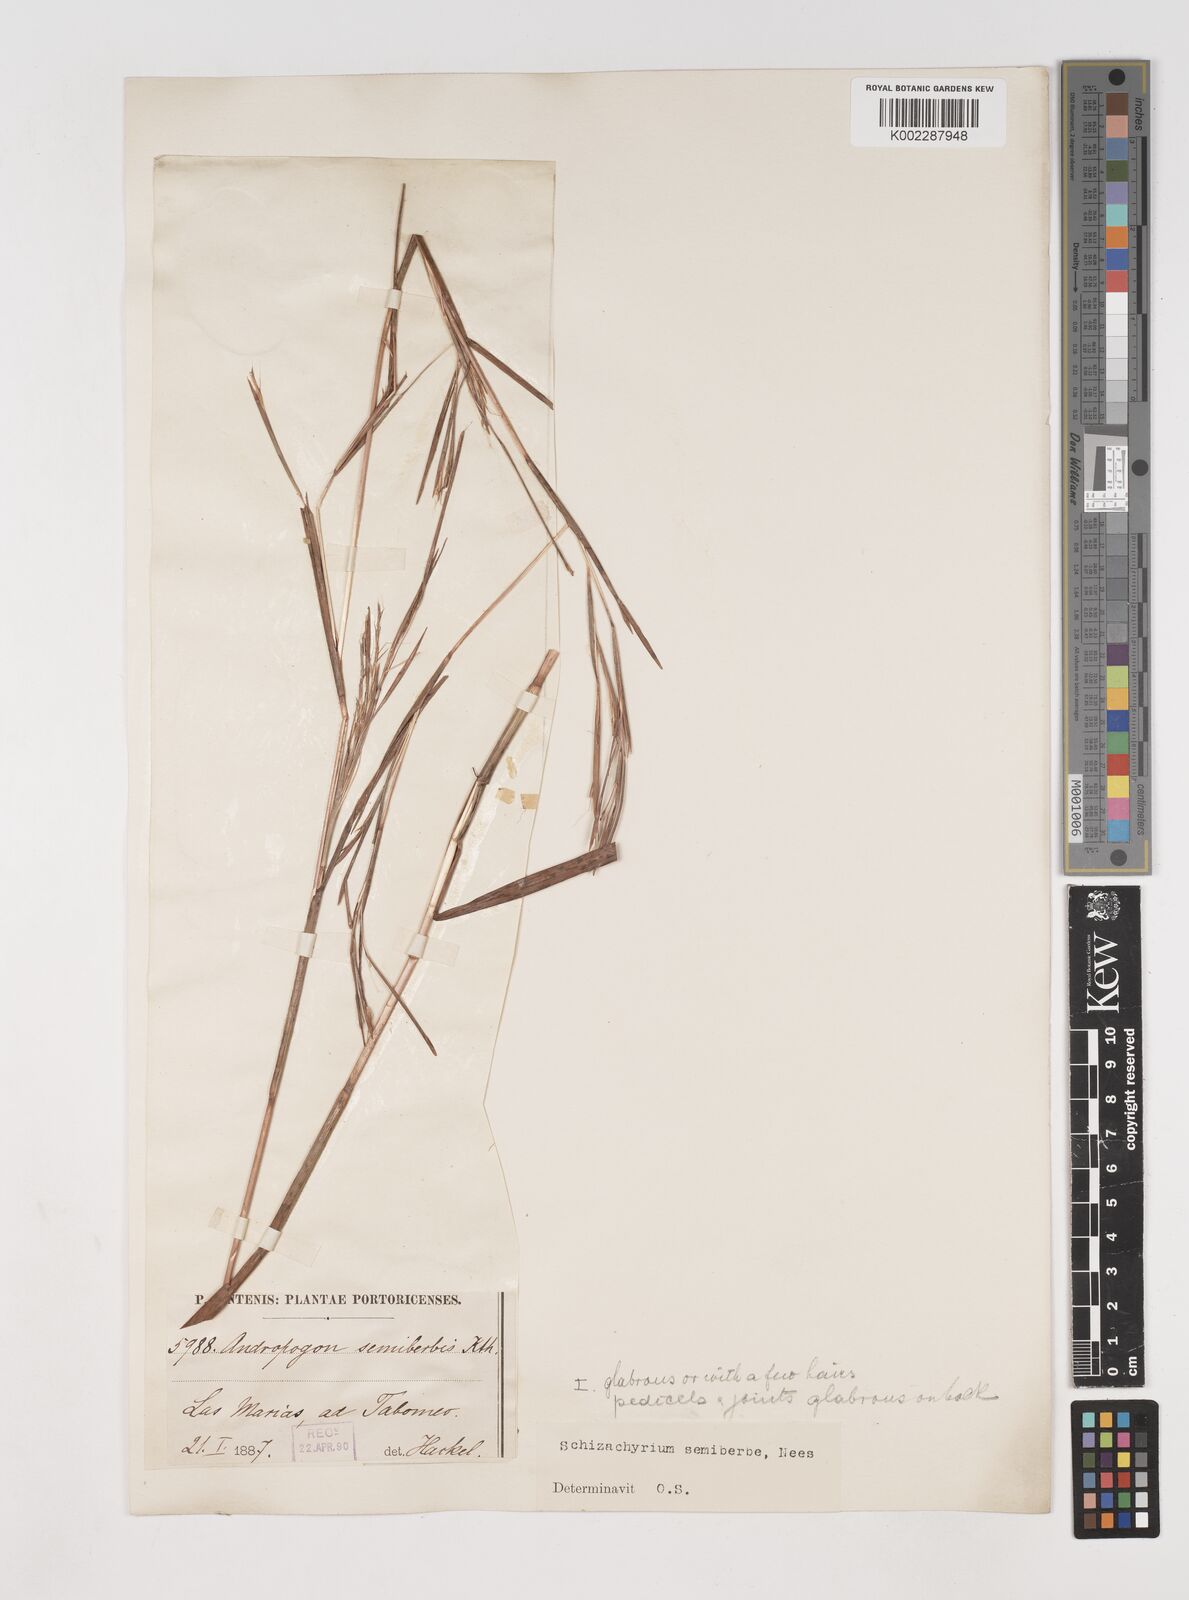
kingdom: Plantae
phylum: Tracheophyta
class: Liliopsida
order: Poales
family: Poaceae
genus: Schizachyrium
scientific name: Schizachyrium sanguineum
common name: Crimson bluestem
